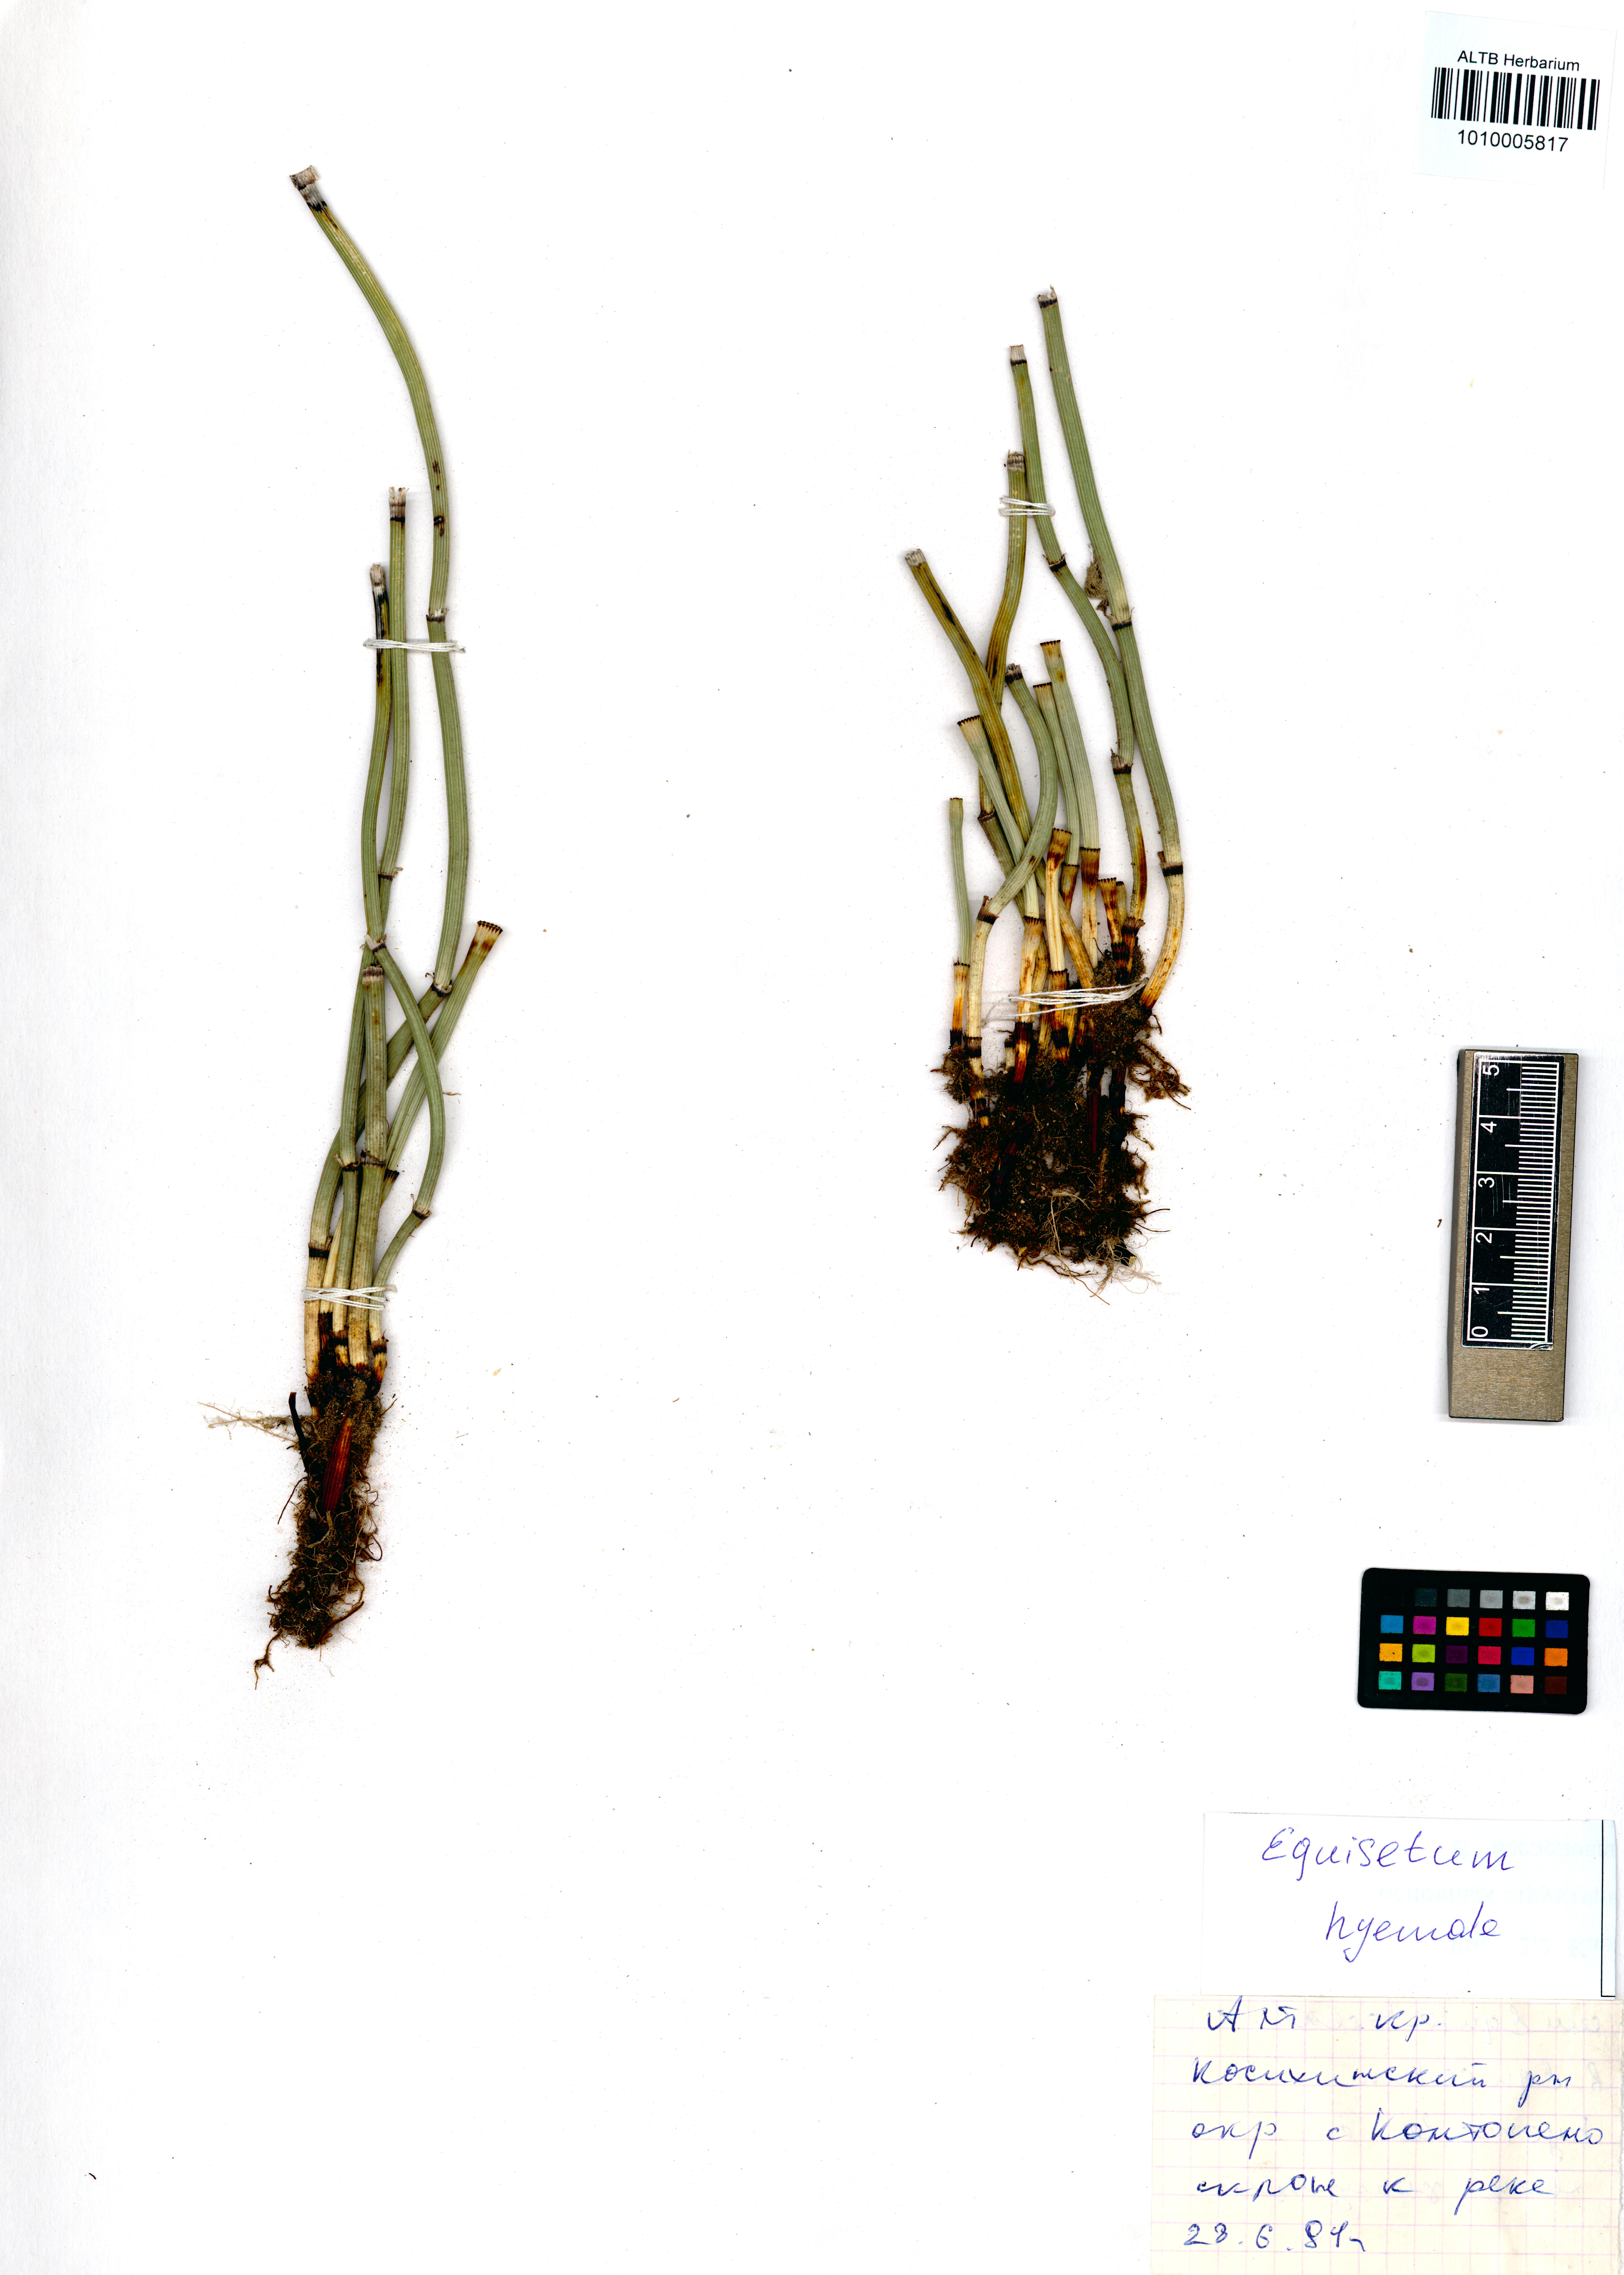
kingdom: Plantae
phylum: Tracheophyta
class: Polypodiopsida
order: Equisetales
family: Equisetaceae
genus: Equisetum
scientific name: Equisetum hyemale
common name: Rough horsetail
